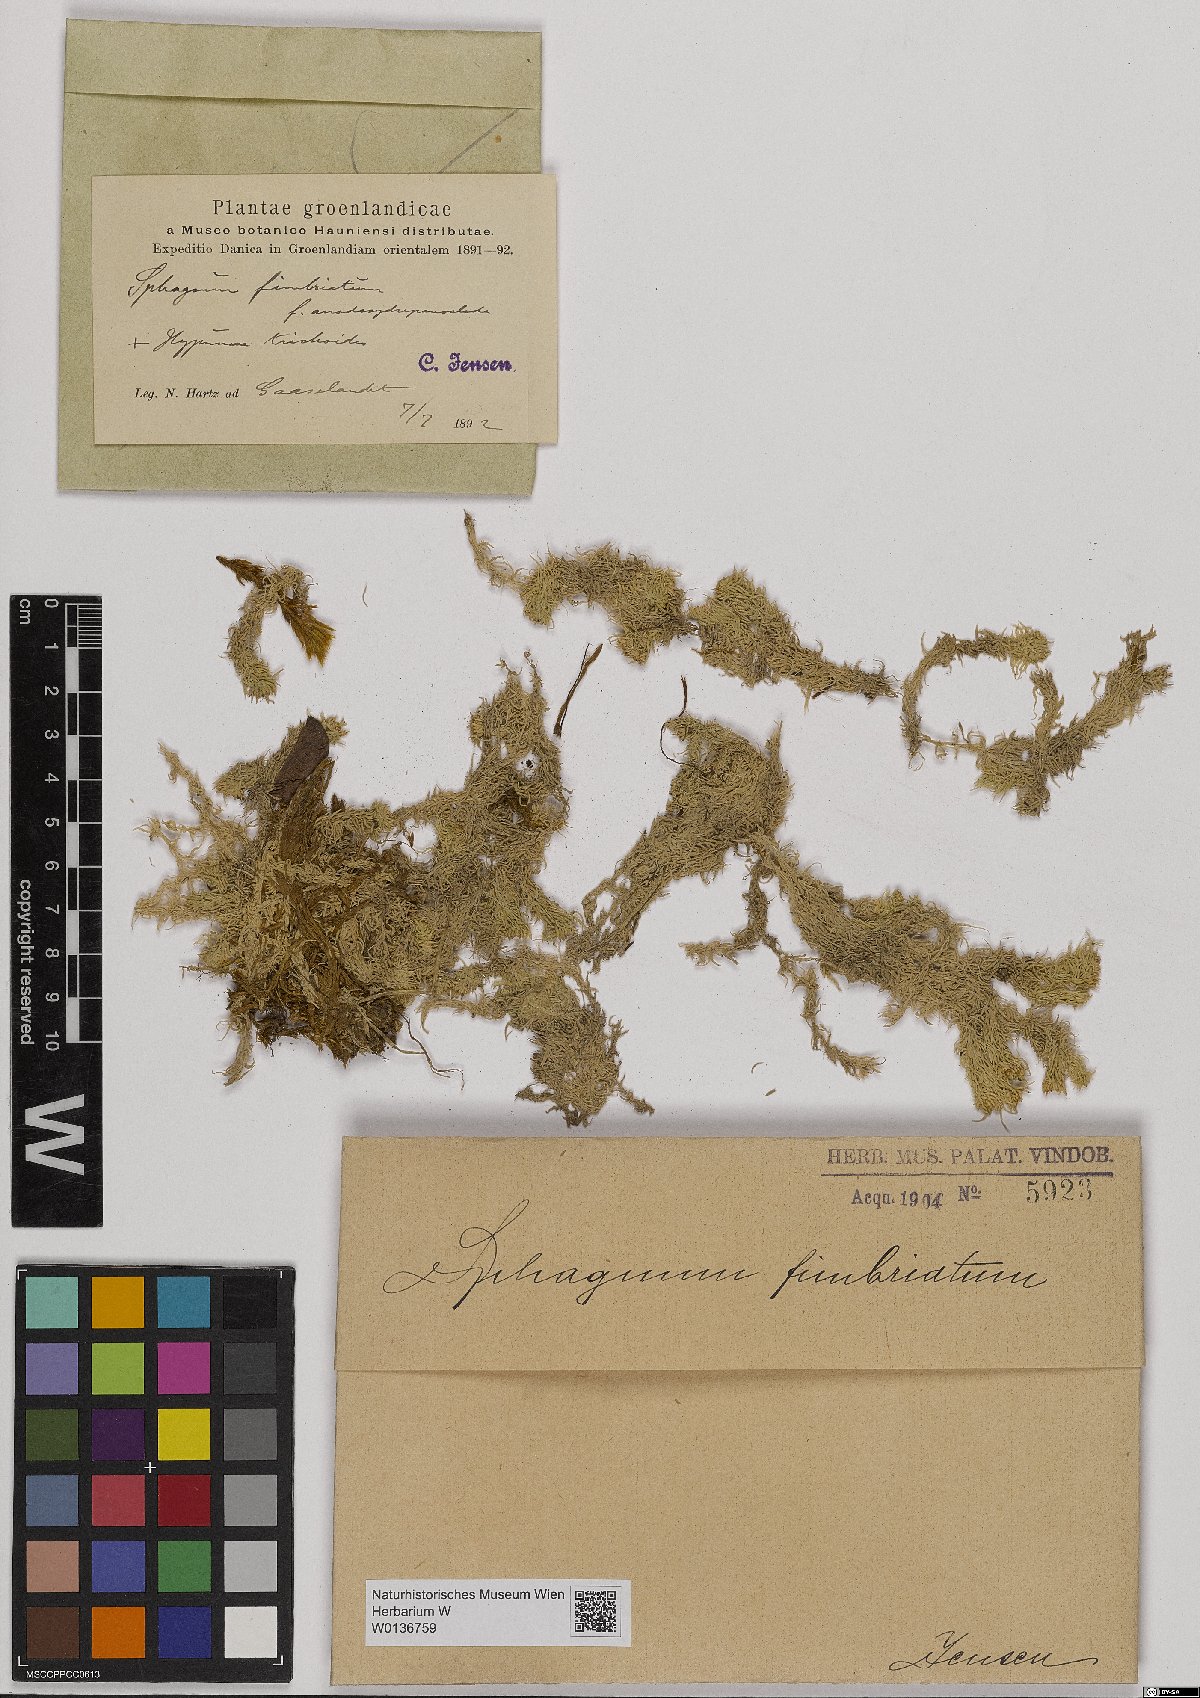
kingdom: Plantae
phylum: Bryophyta
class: Sphagnopsida
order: Sphagnales
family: Sphagnaceae
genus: Sphagnum
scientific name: Sphagnum fimbriatum
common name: Fringed peat moss
